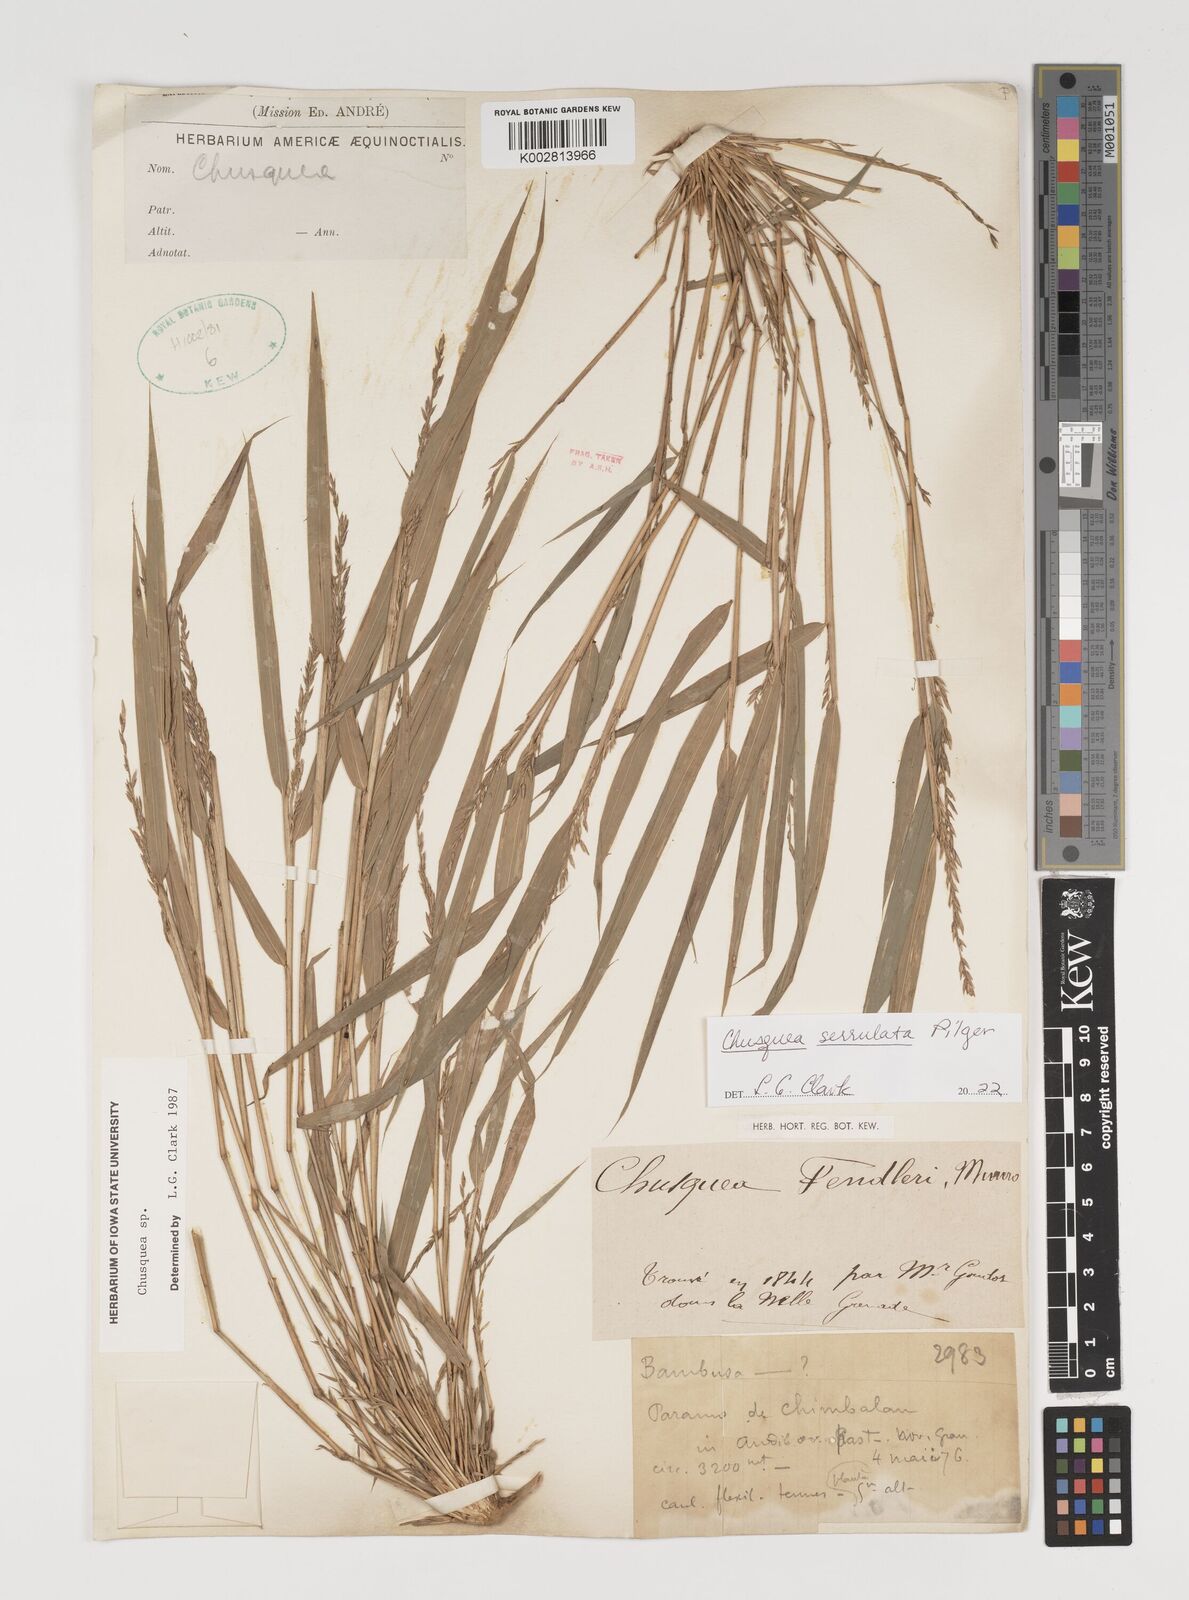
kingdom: Plantae
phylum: Tracheophyta
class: Liliopsida
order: Poales
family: Poaceae
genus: Chusquea
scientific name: Chusquea amistadensis
